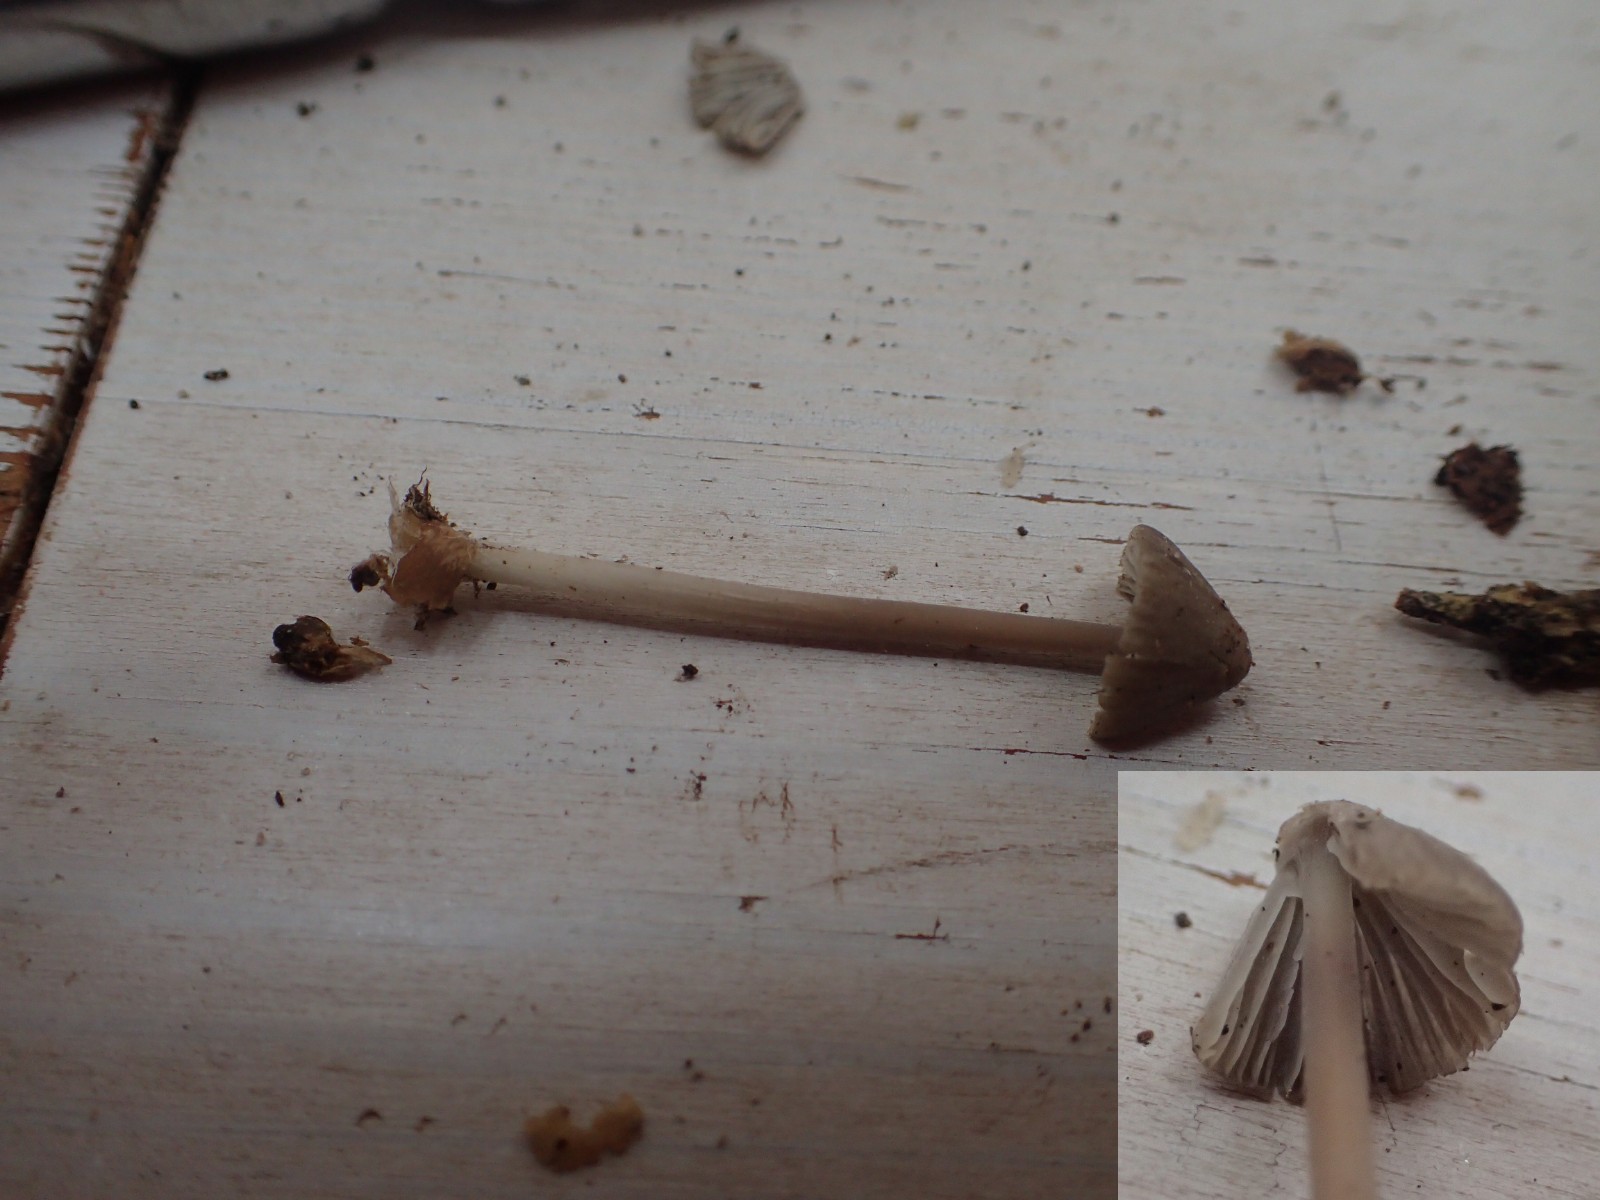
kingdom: Fungi
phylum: Basidiomycota
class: Agaricomycetes
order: Agaricales
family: Mycenaceae
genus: Mycena
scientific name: Mycena leptocephala
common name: klor-huesvamp
